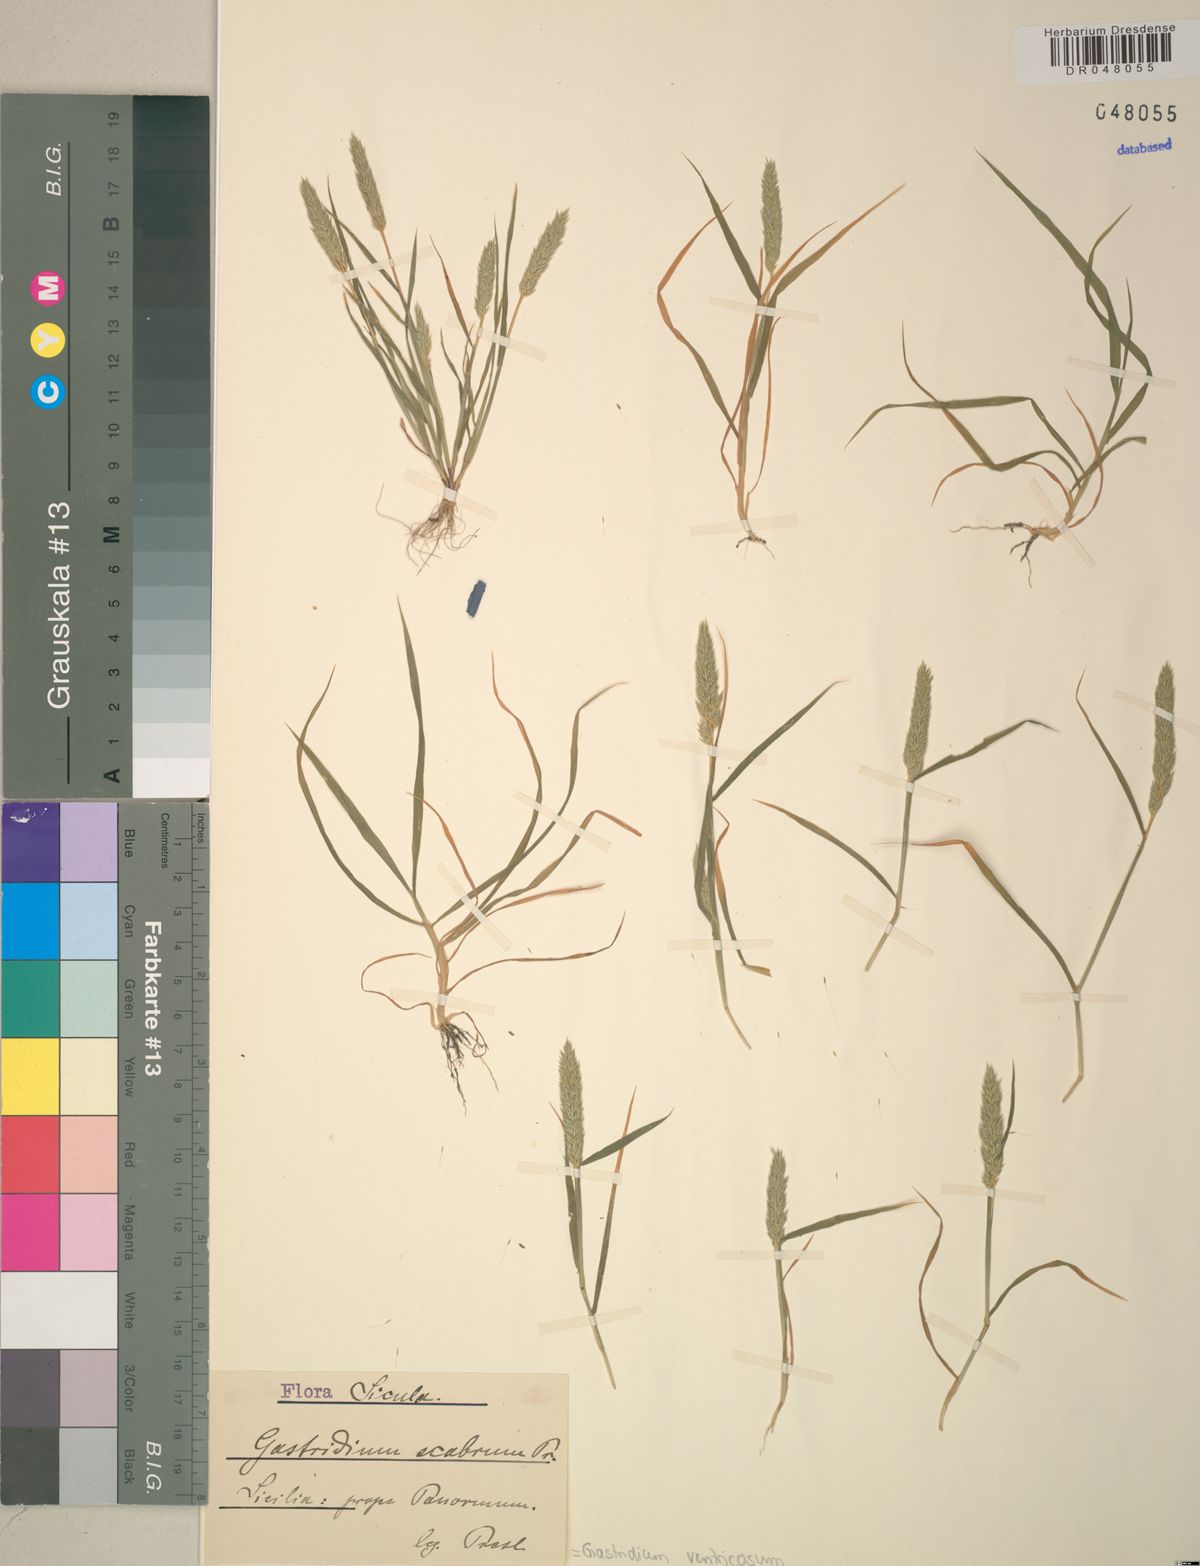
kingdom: Plantae
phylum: Tracheophyta
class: Liliopsida
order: Poales
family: Poaceae
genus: Gastridium
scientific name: Gastridium ventricosum
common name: Nit-grass
